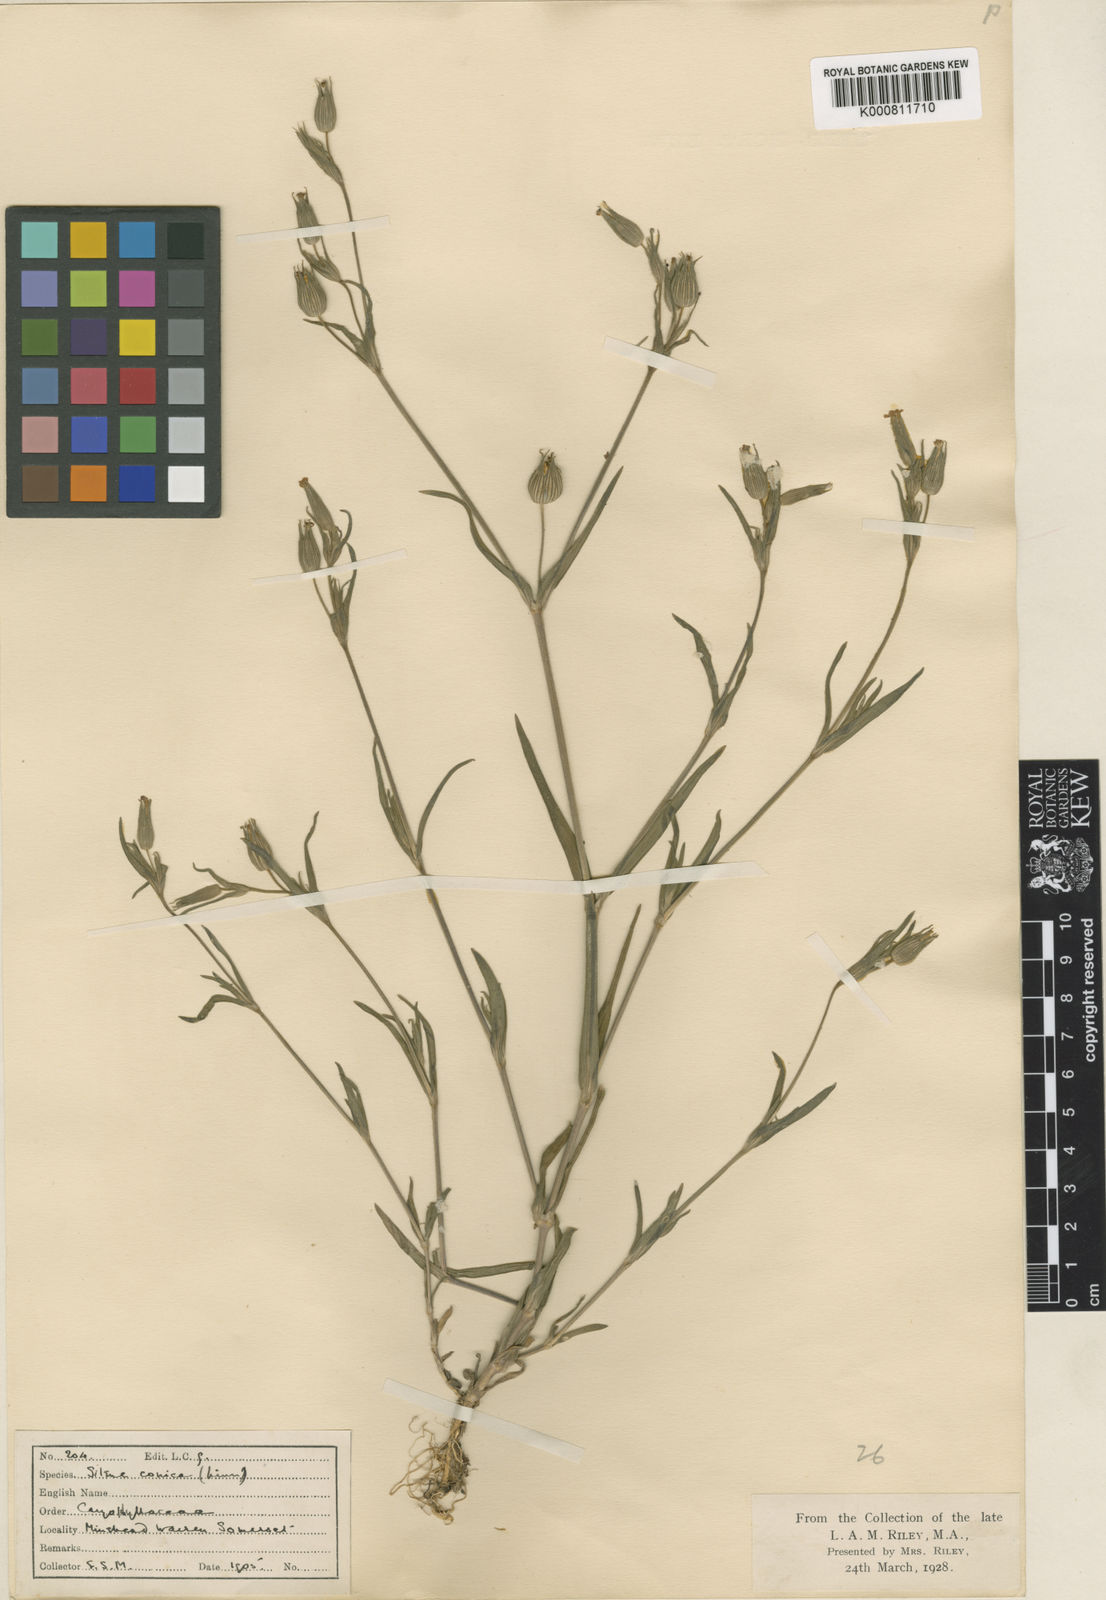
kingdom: Plantae
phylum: Tracheophyta
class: Magnoliopsida
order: Caryophyllales
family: Caryophyllaceae
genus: Silene
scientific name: Silene conica
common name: Sand catchfly
